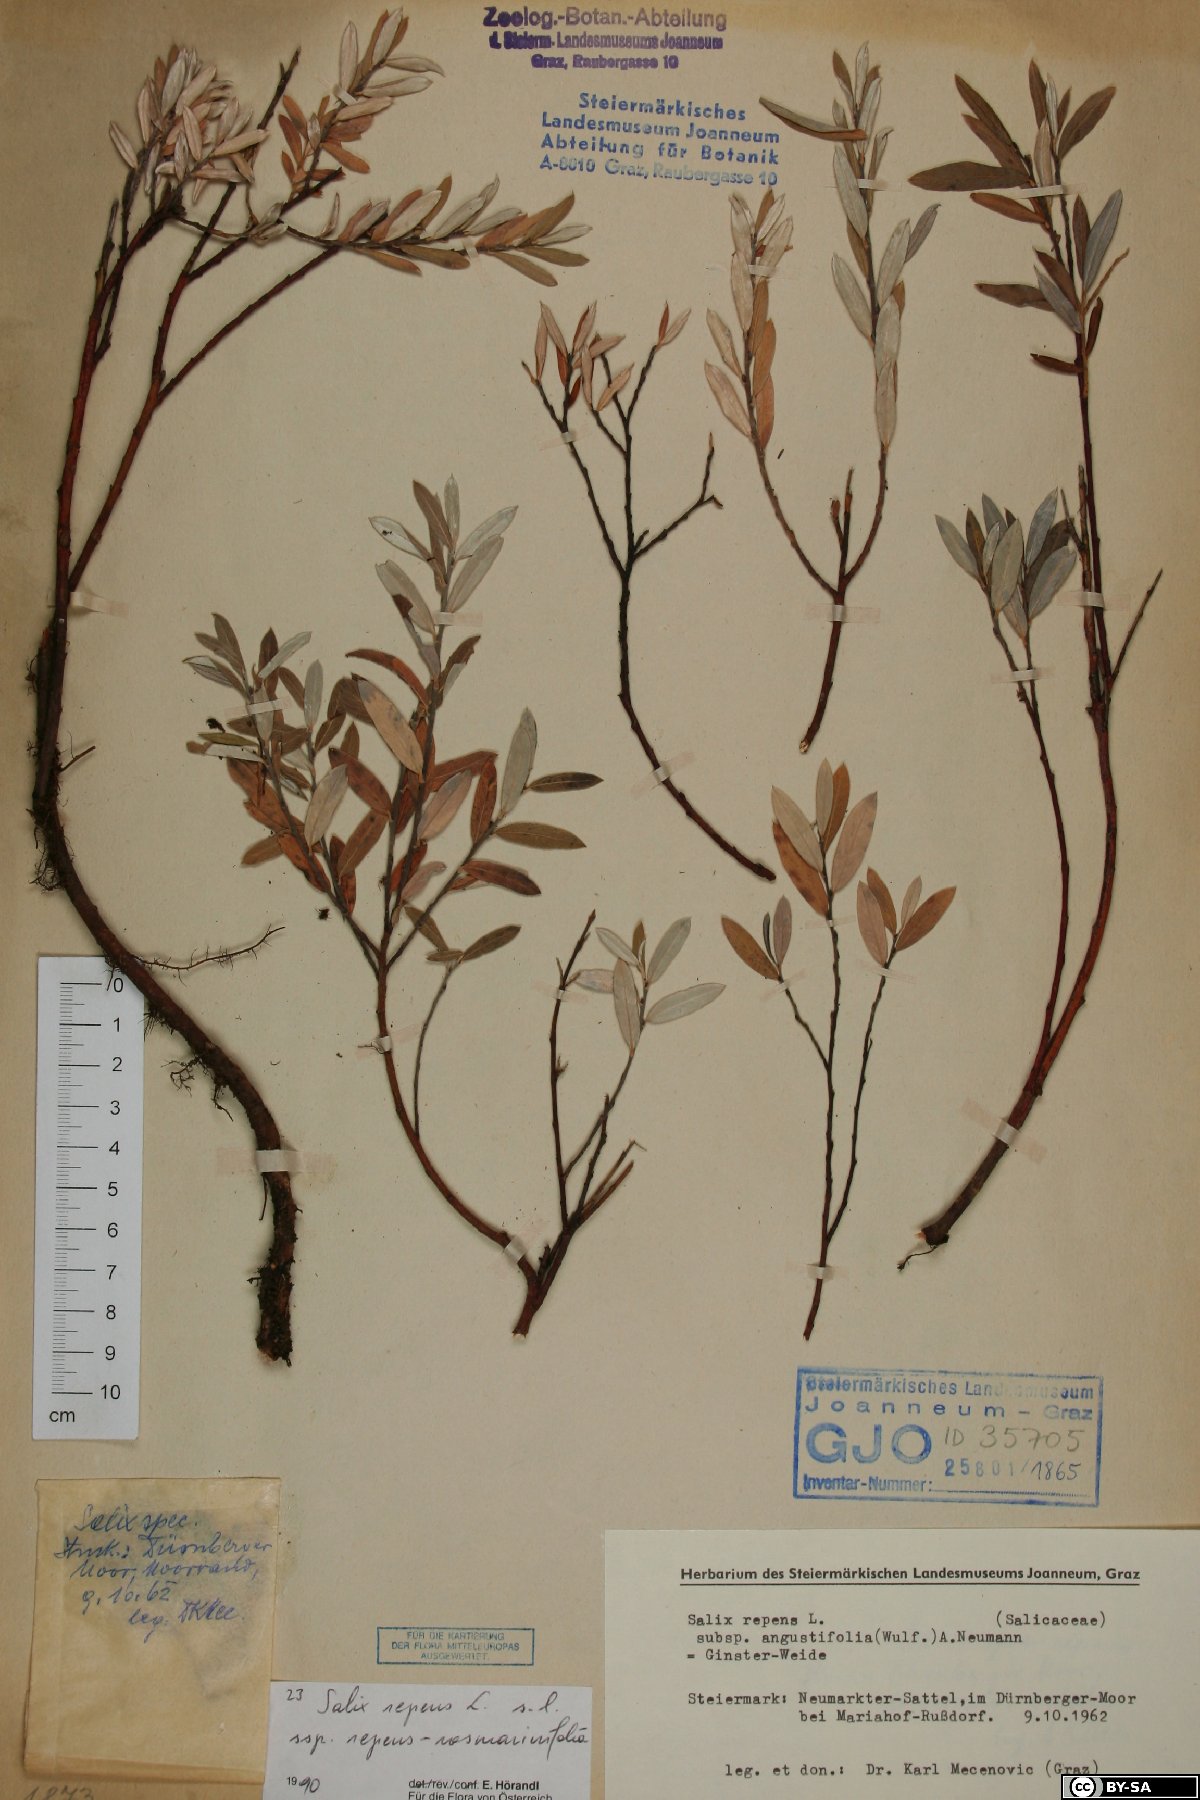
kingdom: Plantae
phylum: Tracheophyta
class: Magnoliopsida
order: Malpighiales
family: Salicaceae
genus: Salix
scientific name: Salix repens
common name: Creeping willow
